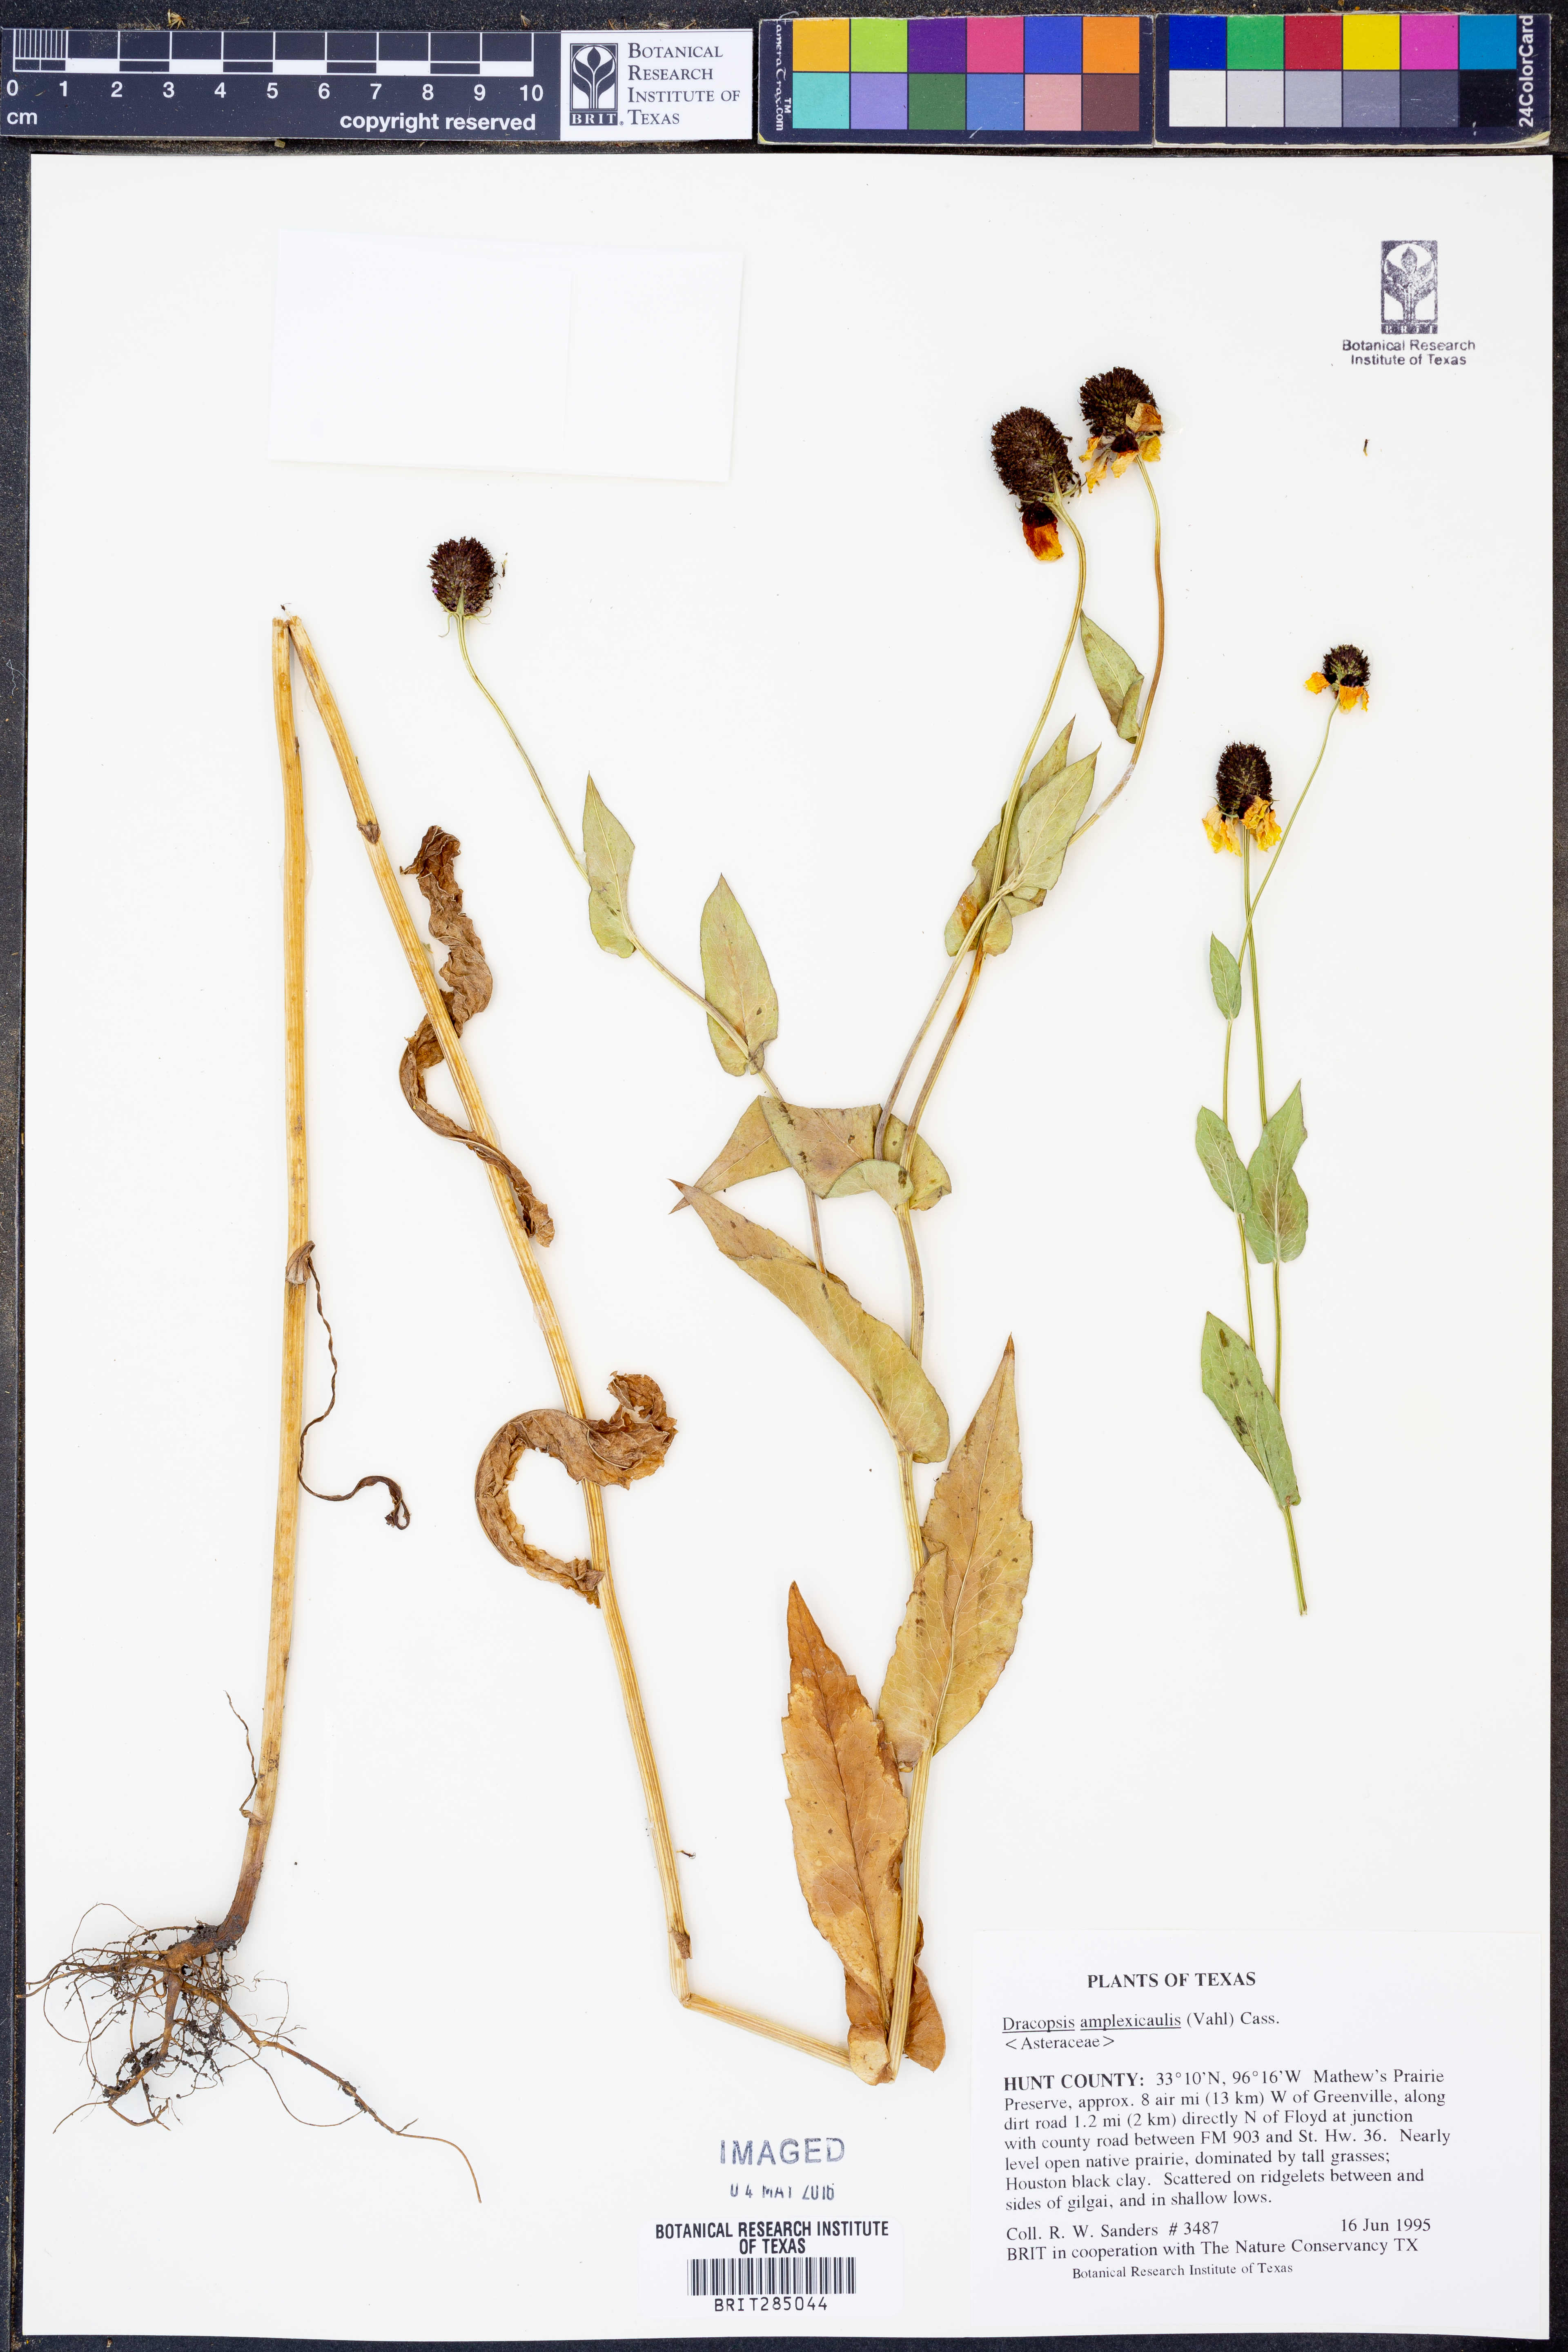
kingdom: Plantae
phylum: Tracheophyta
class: Magnoliopsida
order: Asterales
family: Asteraceae
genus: Rudbeckia
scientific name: Rudbeckia amplexicaulis
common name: Clasping-leaf coneflower
